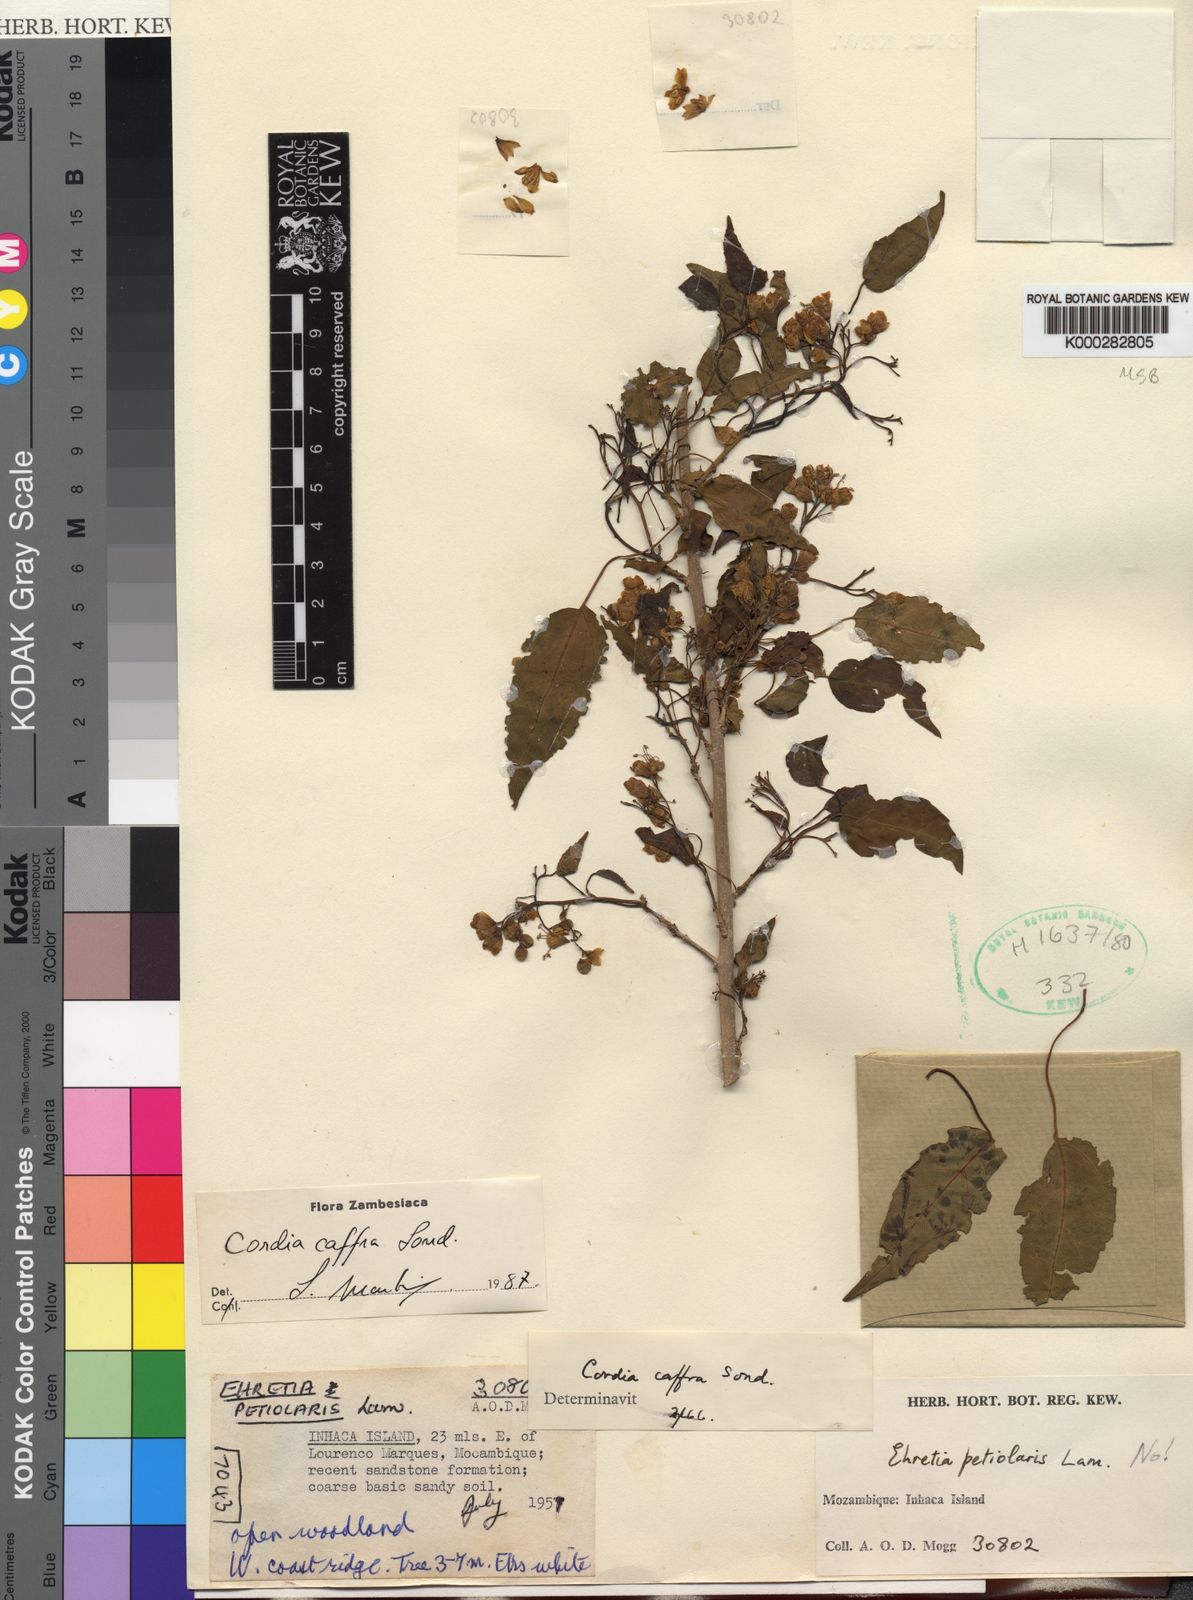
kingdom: Plantae
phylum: Tracheophyta
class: Magnoliopsida
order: Boraginales
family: Cordiaceae
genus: Cordia
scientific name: Cordia caffra
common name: Septee tree
